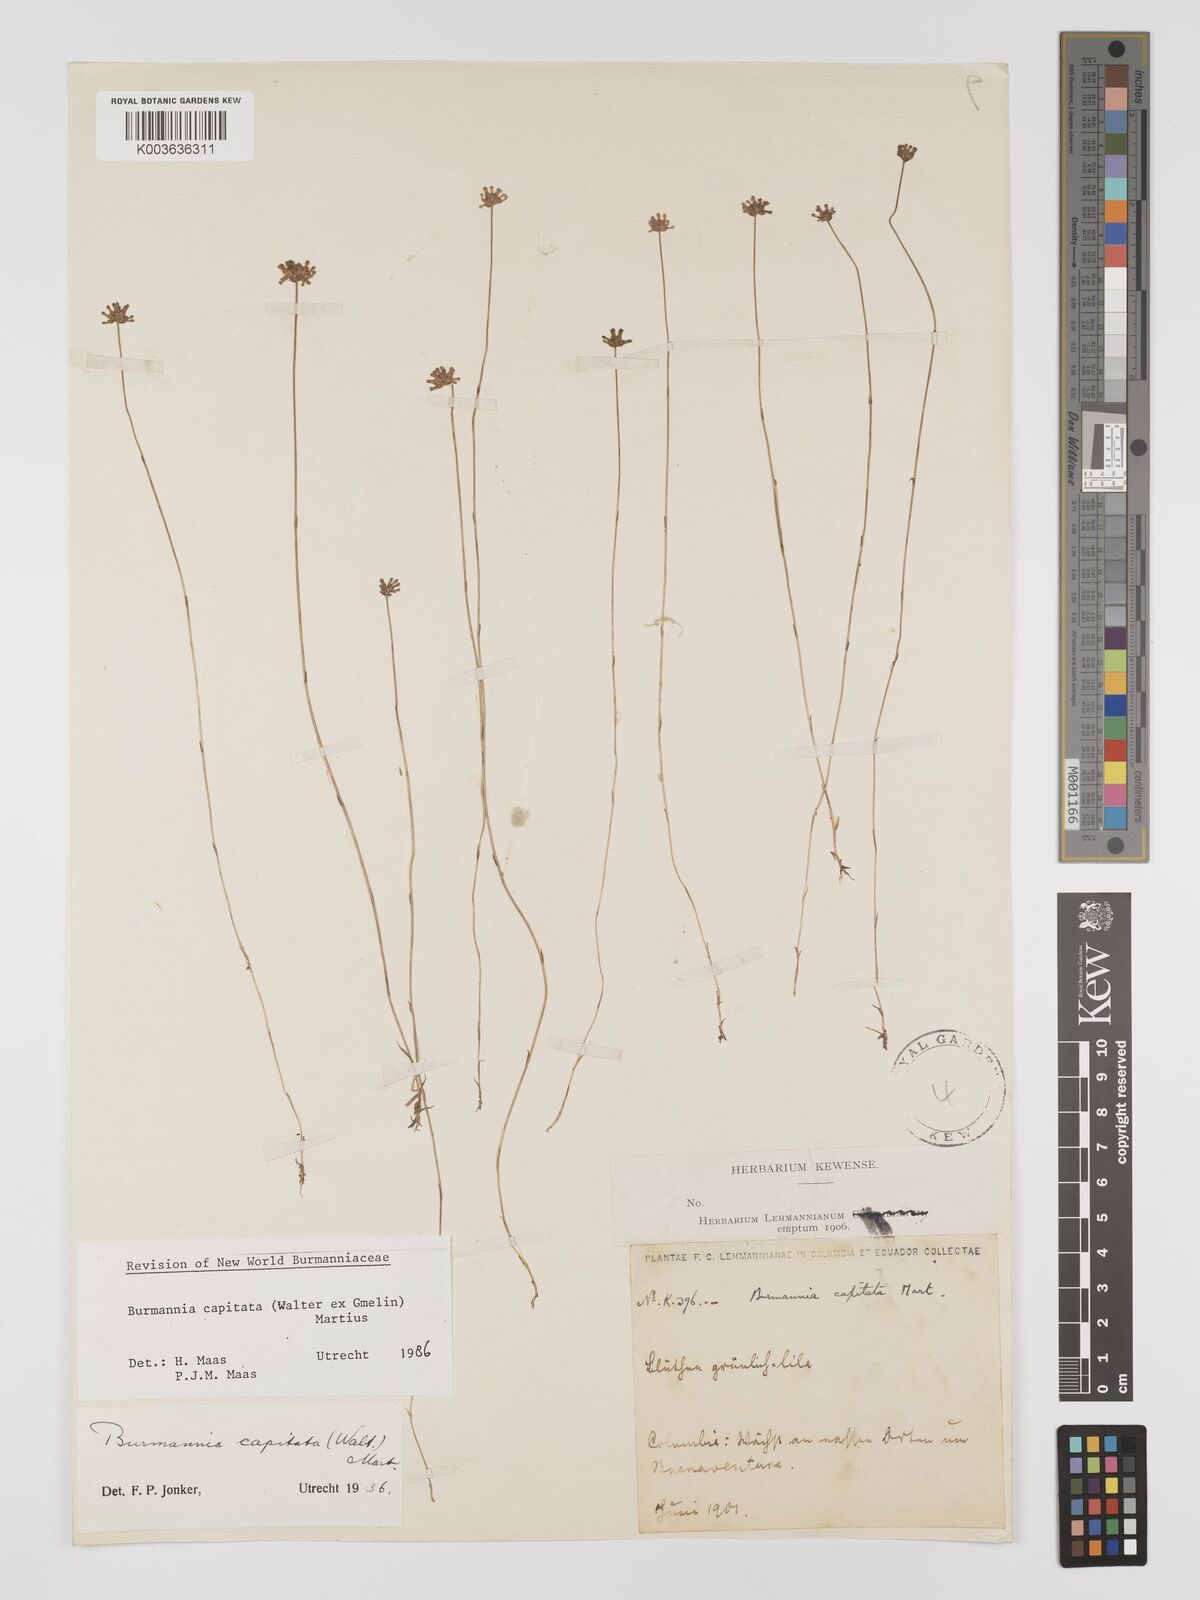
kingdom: Plantae
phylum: Tracheophyta
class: Liliopsida
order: Dioscoreales
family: Burmanniaceae
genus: Burmannia
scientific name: Burmannia capitata
